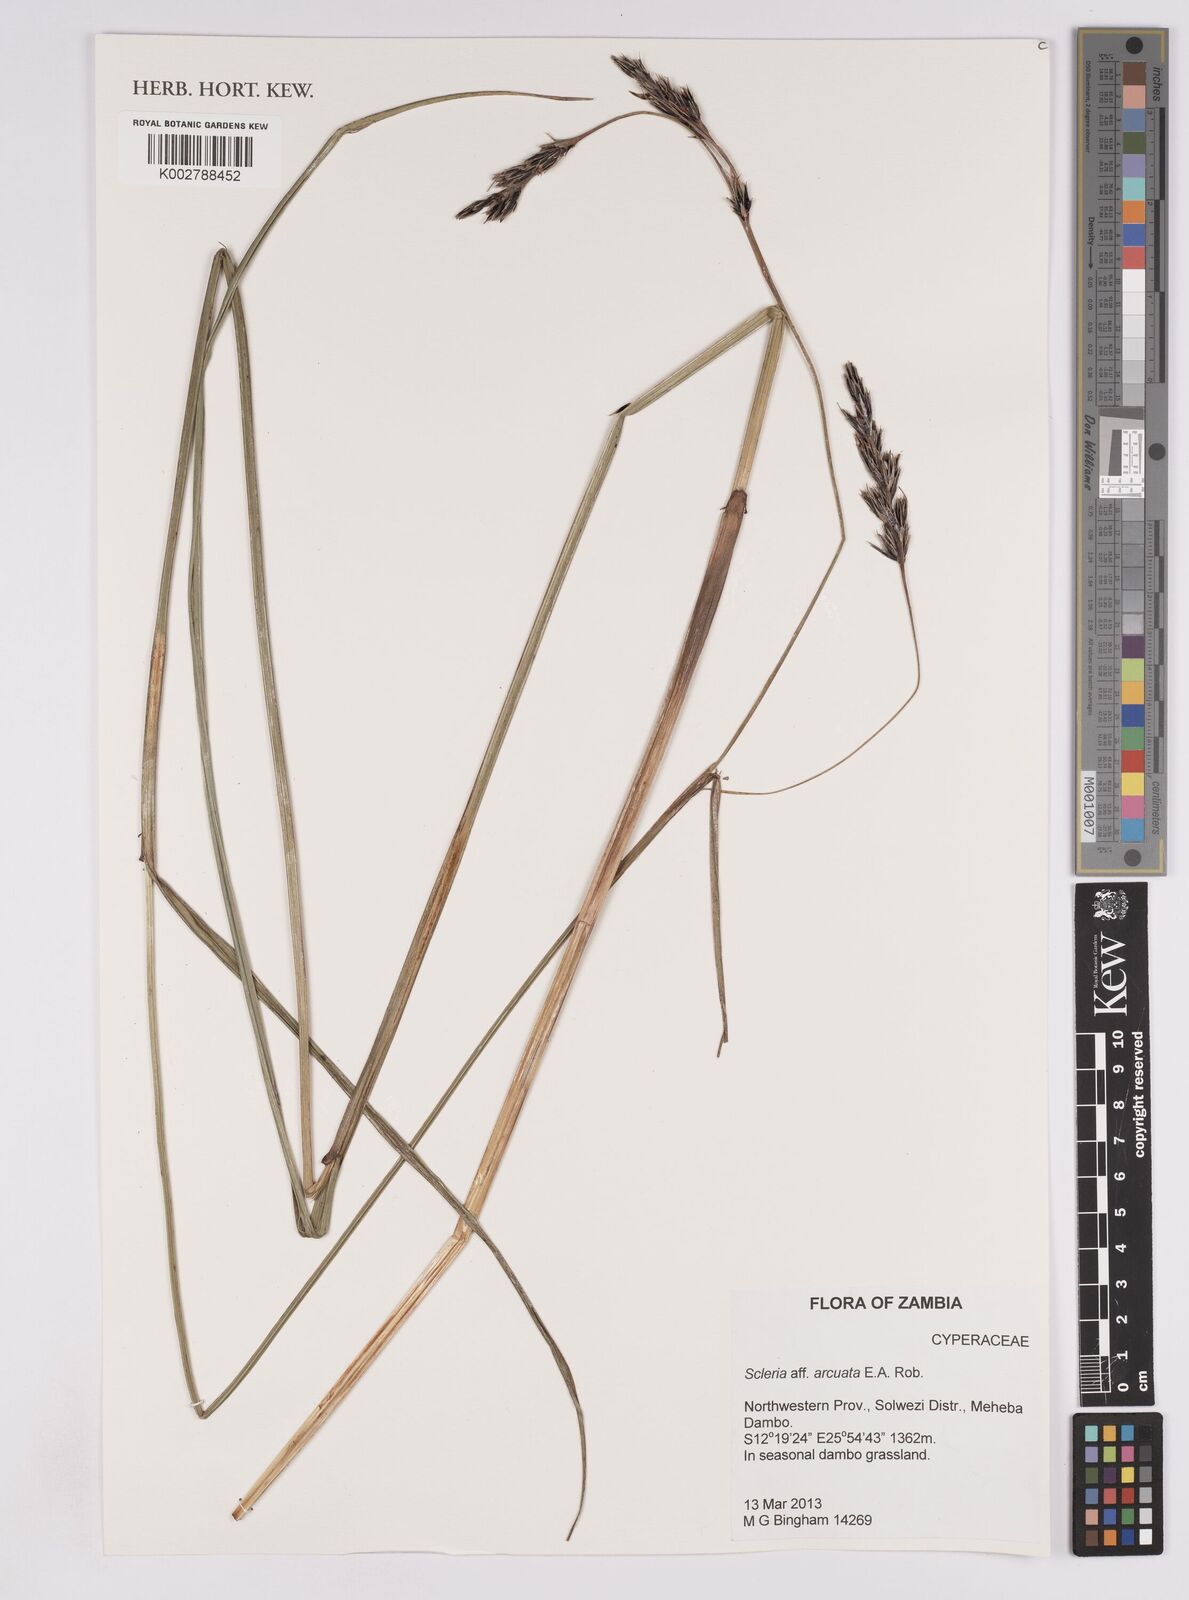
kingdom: Plantae
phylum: Tracheophyta
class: Liliopsida
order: Poales
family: Cyperaceae
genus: Scleria
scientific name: Scleria arcuata
